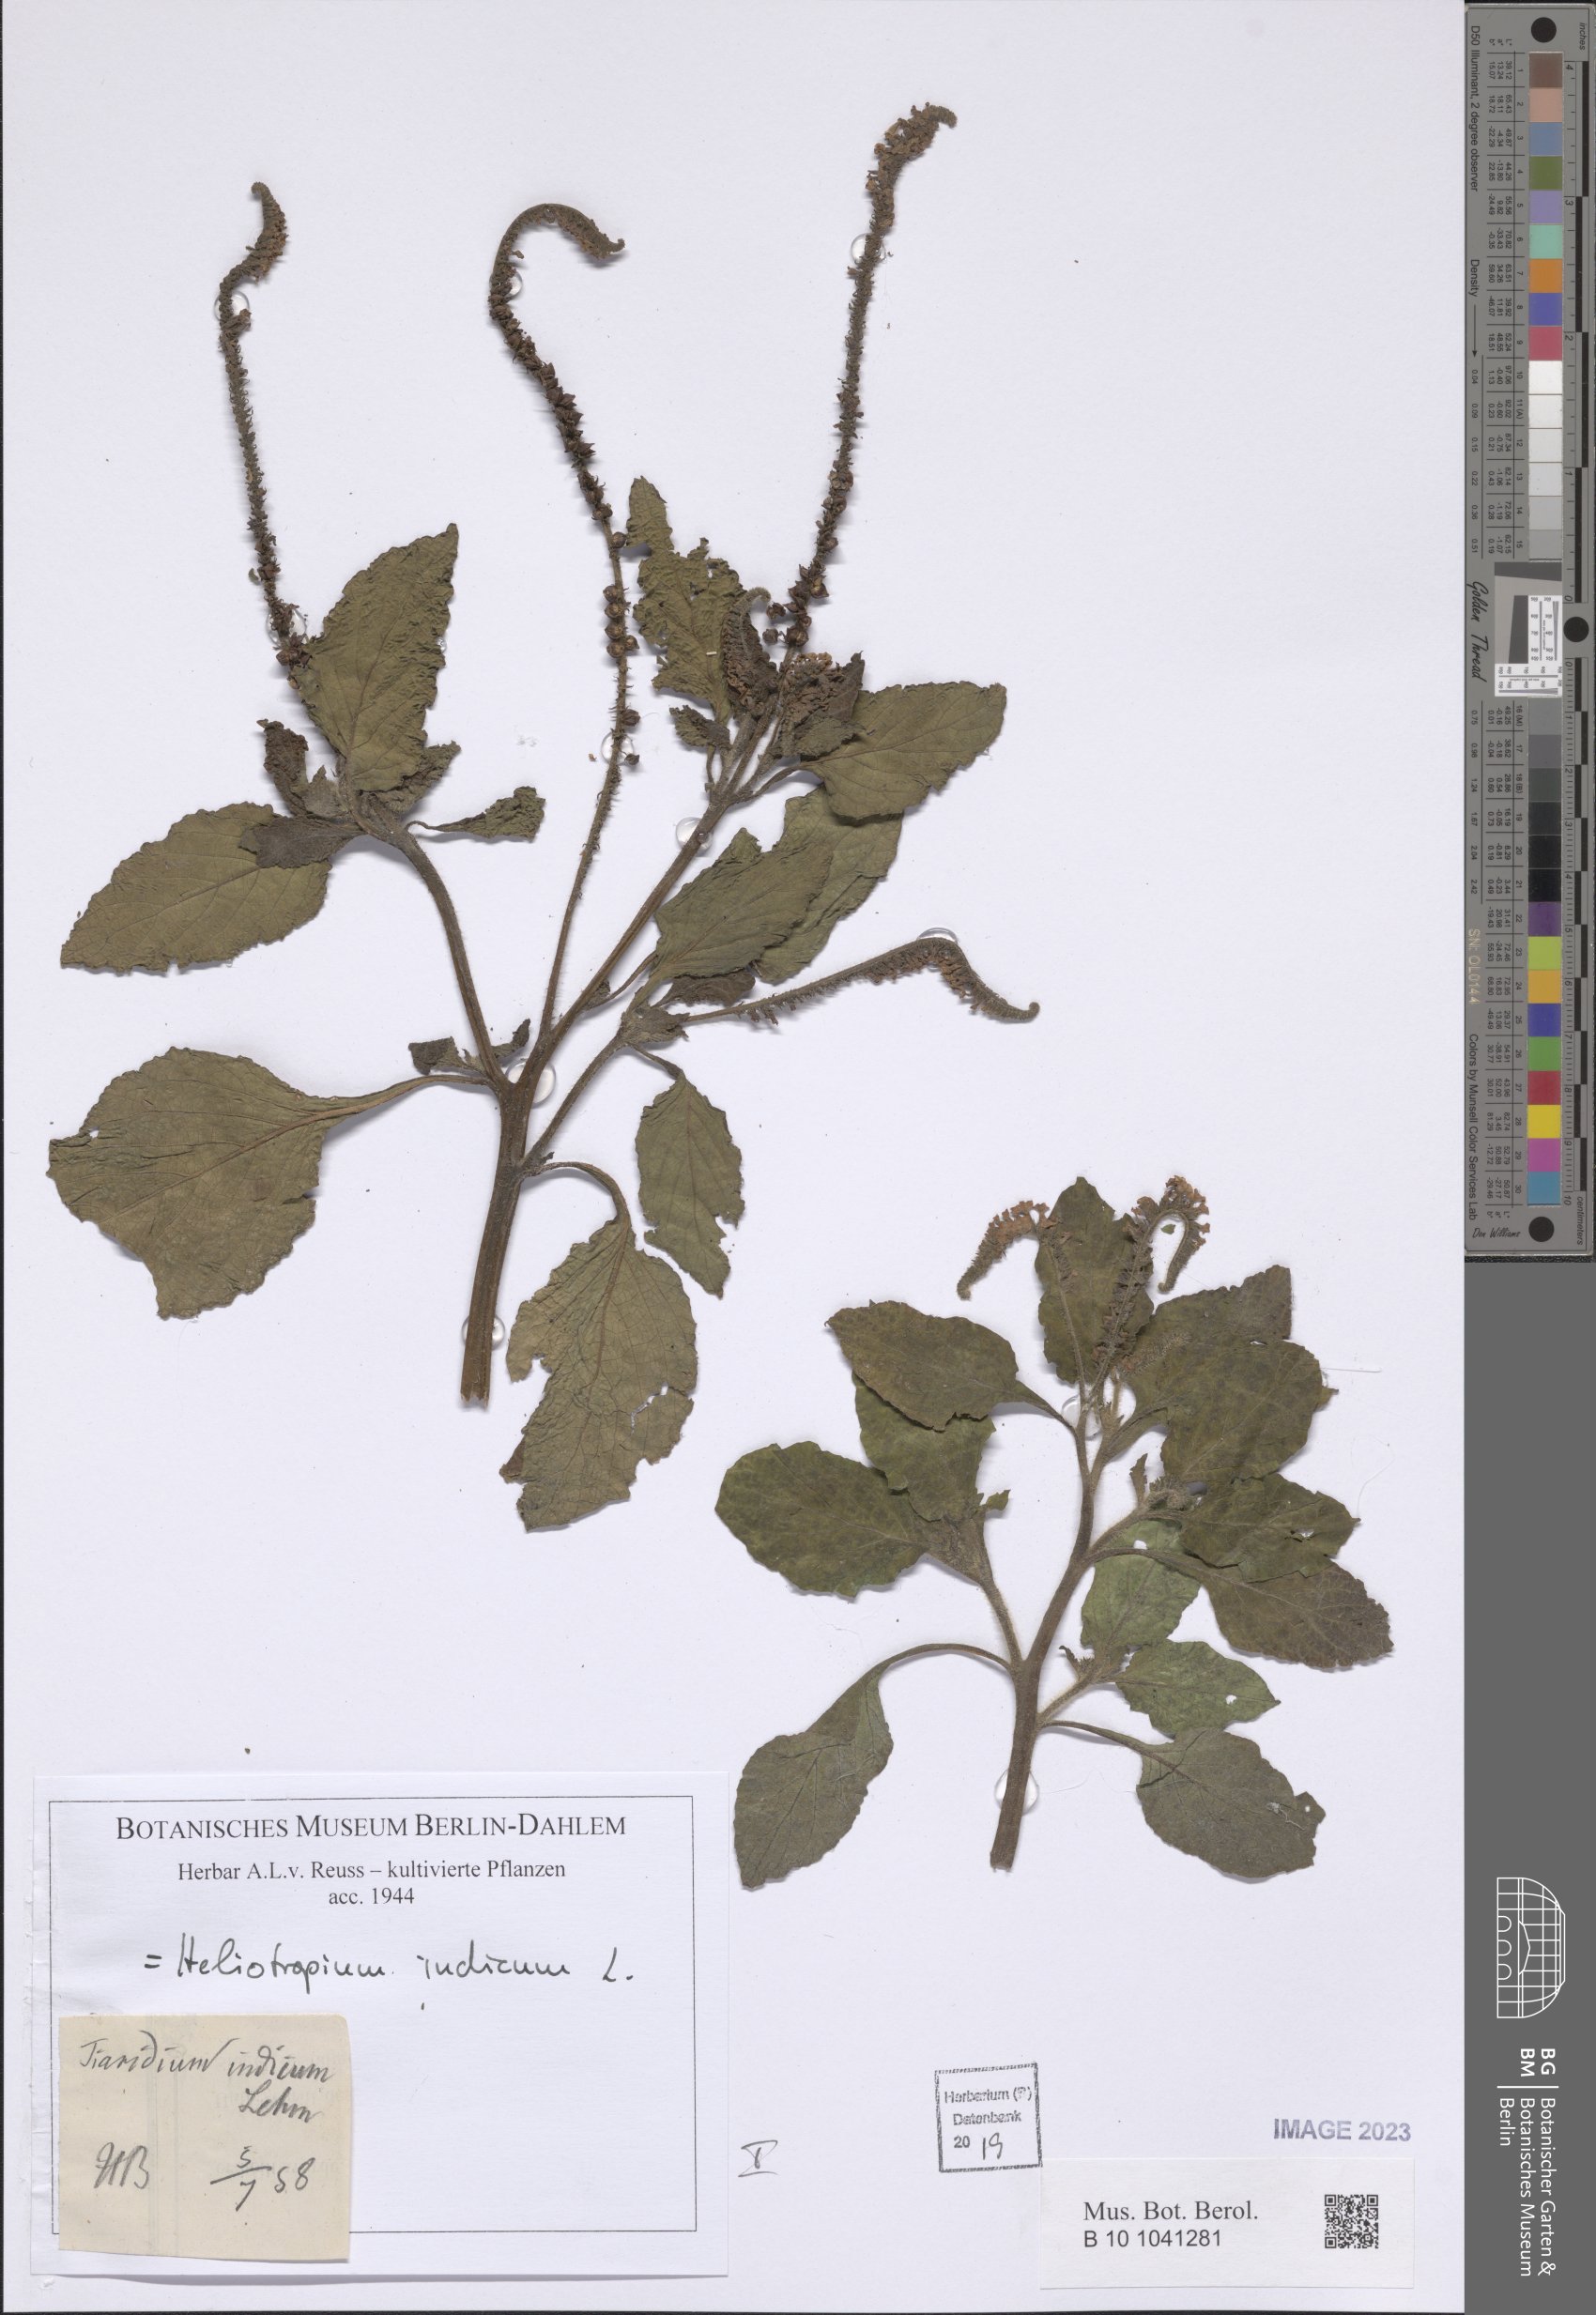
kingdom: Plantae
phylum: Tracheophyta
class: Magnoliopsida
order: Boraginales
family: Heliotropiaceae
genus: Heliotropium
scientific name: Heliotropium indicum
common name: Indian heliotrope
